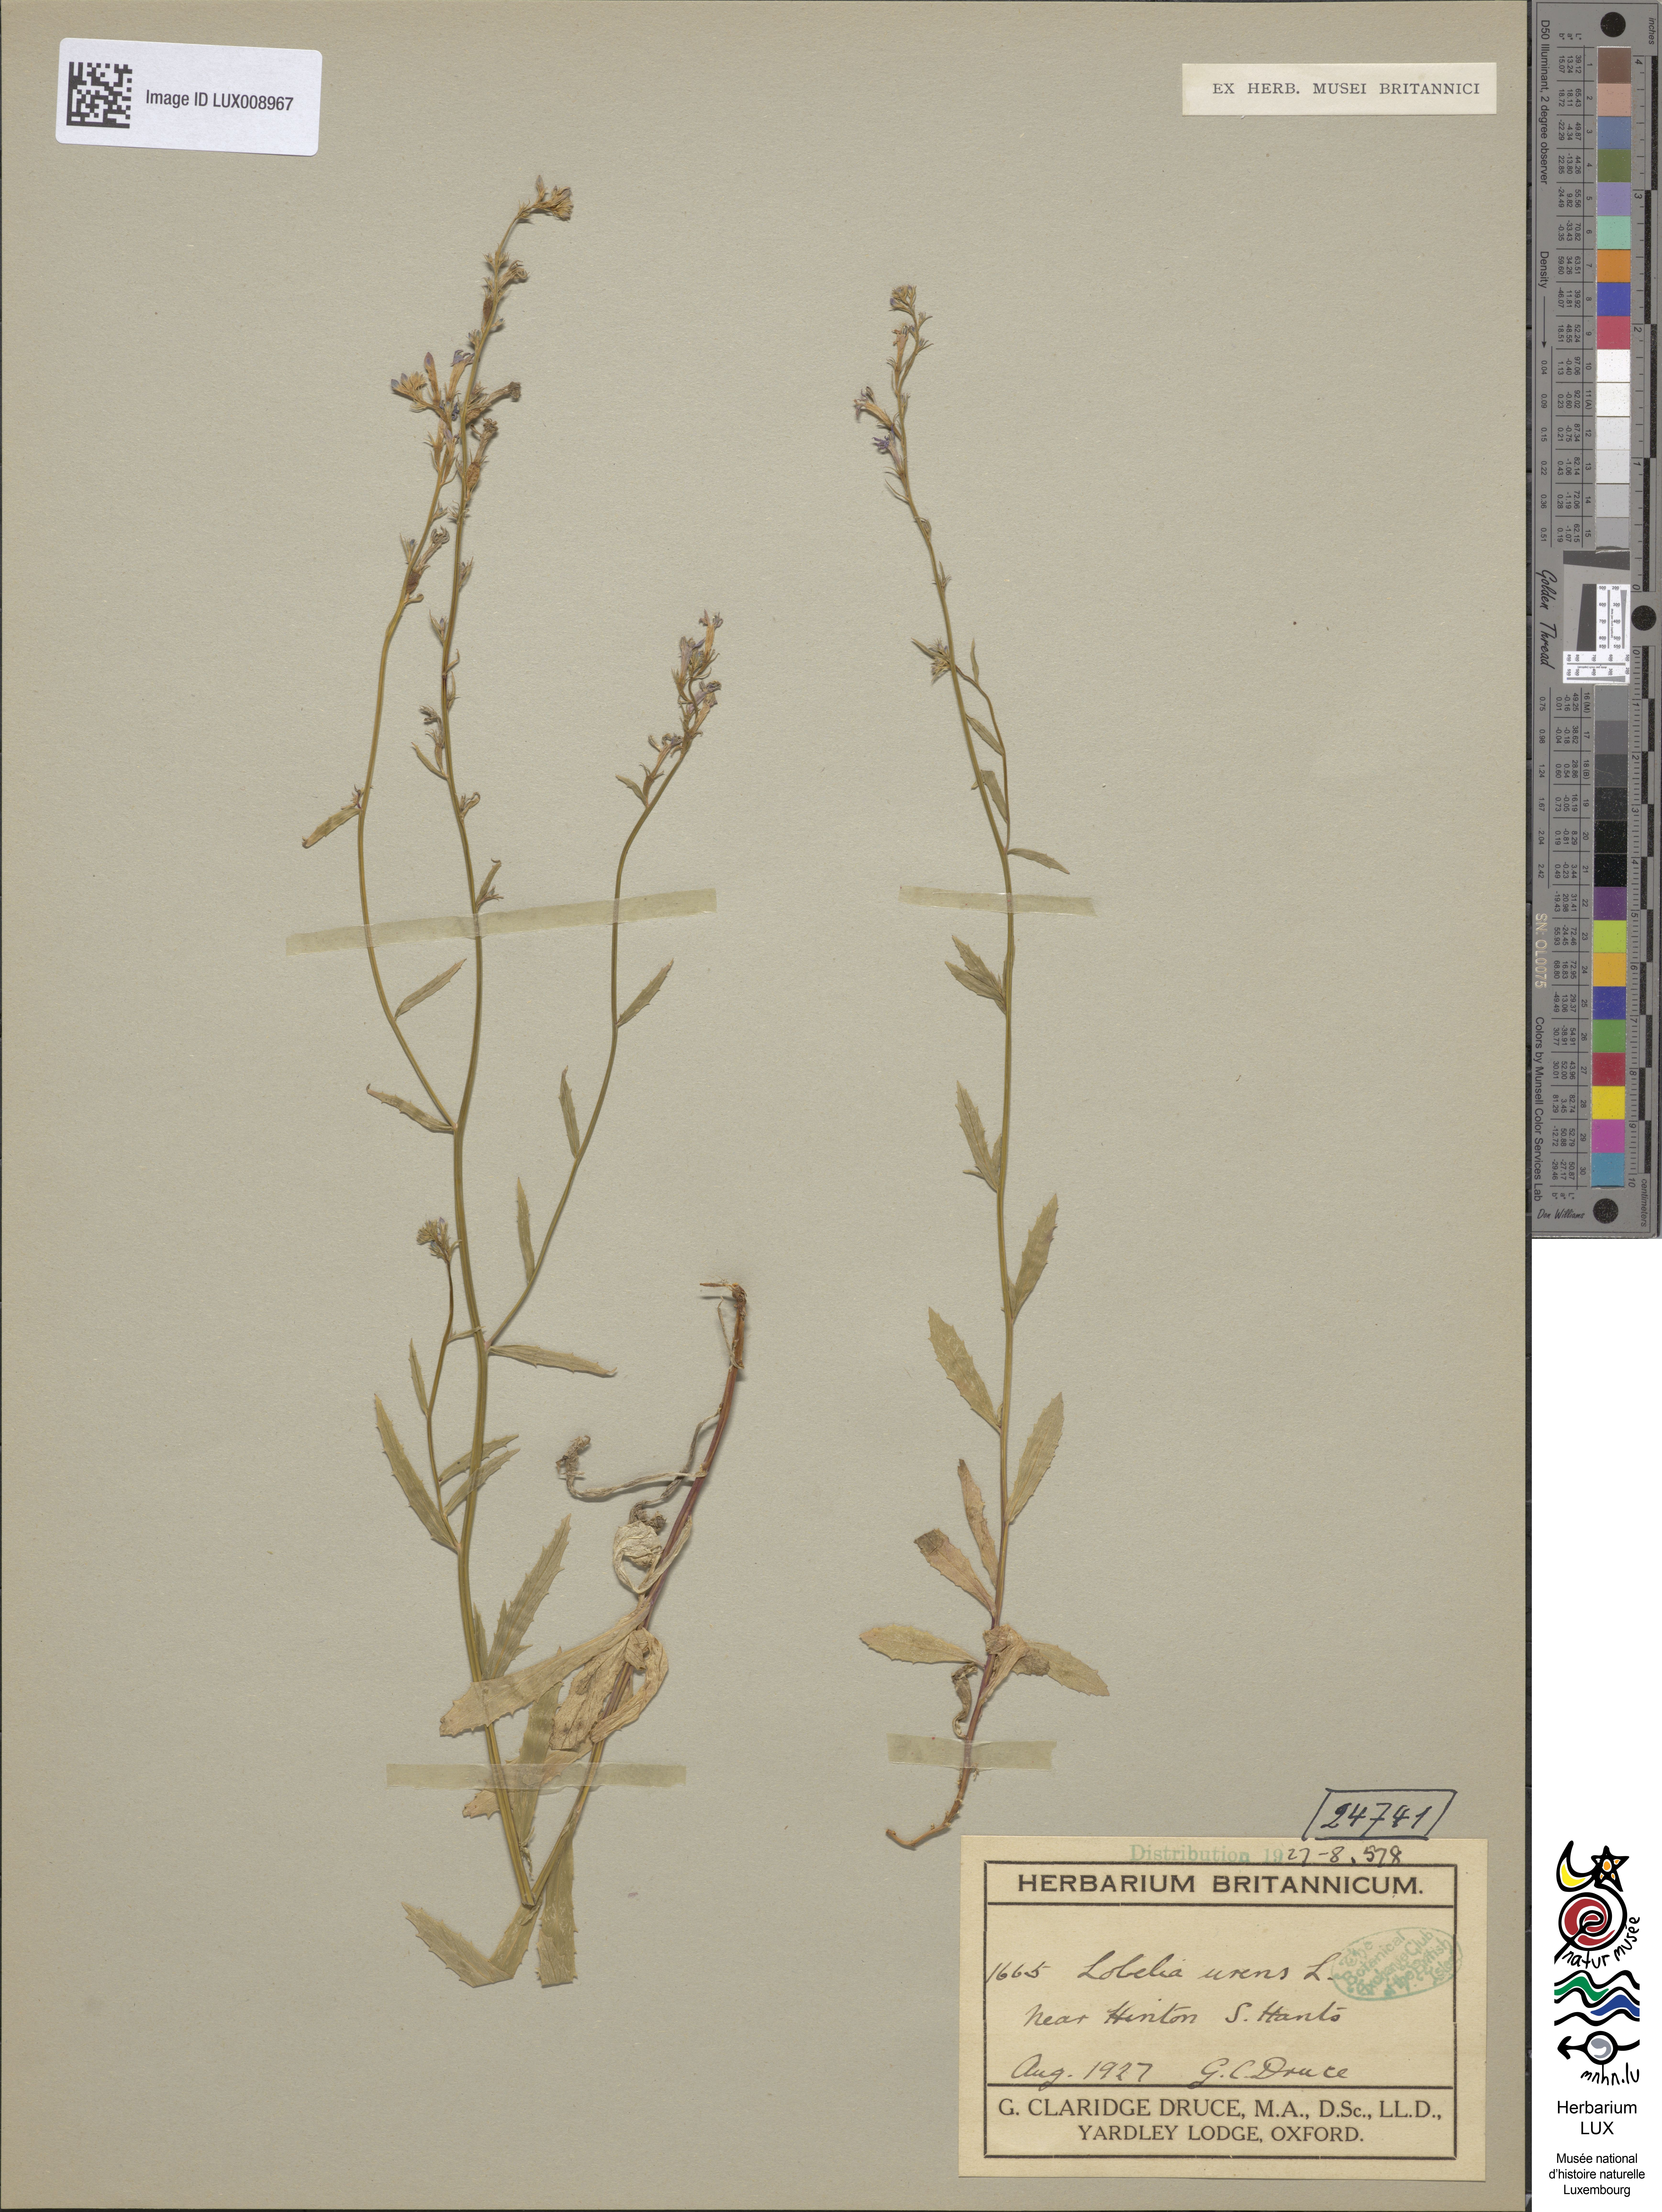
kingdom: Plantae
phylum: Tracheophyta
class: Magnoliopsida
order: Asterales
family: Campanulaceae
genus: Lobelia
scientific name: Lobelia urens
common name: Heath lobelia
